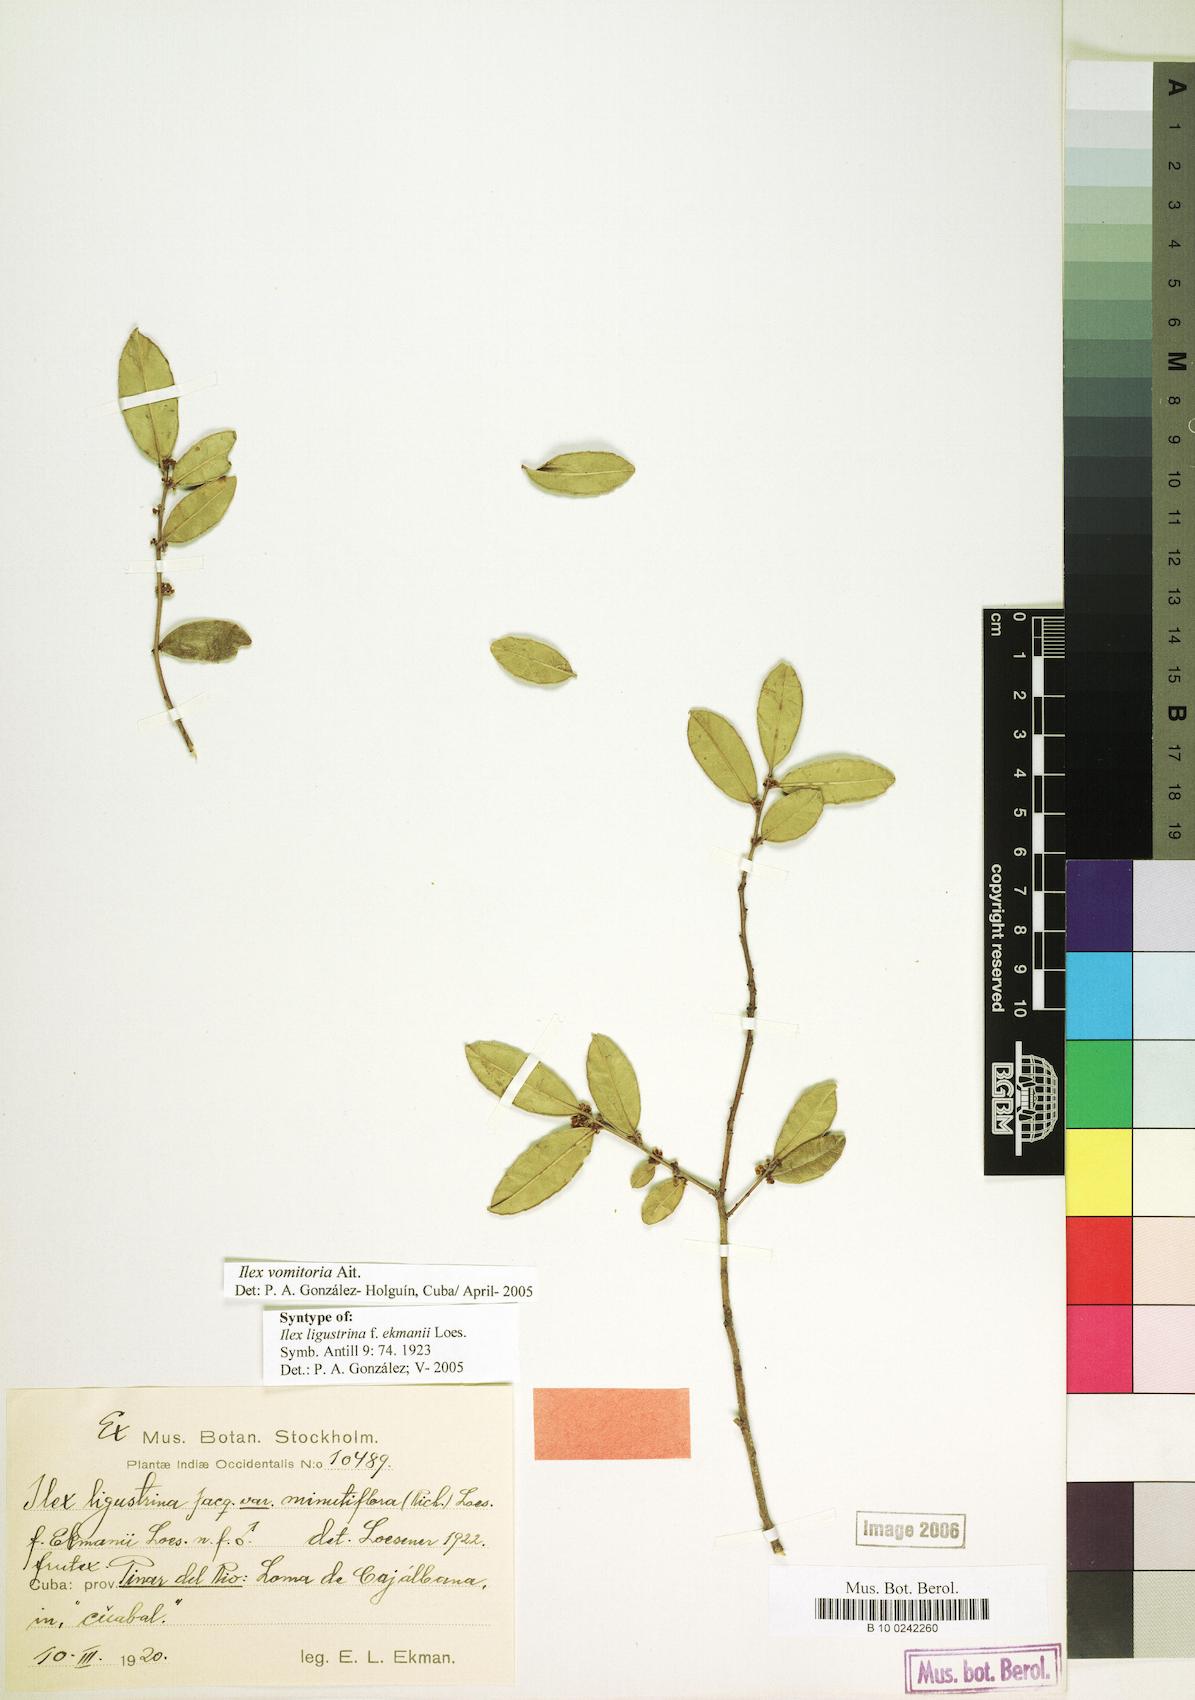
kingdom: Plantae
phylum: Tracheophyta
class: Magnoliopsida
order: Aquifoliales
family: Aquifoliaceae
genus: Ilex
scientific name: Ilex vomitoria
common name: Yaupon holly
